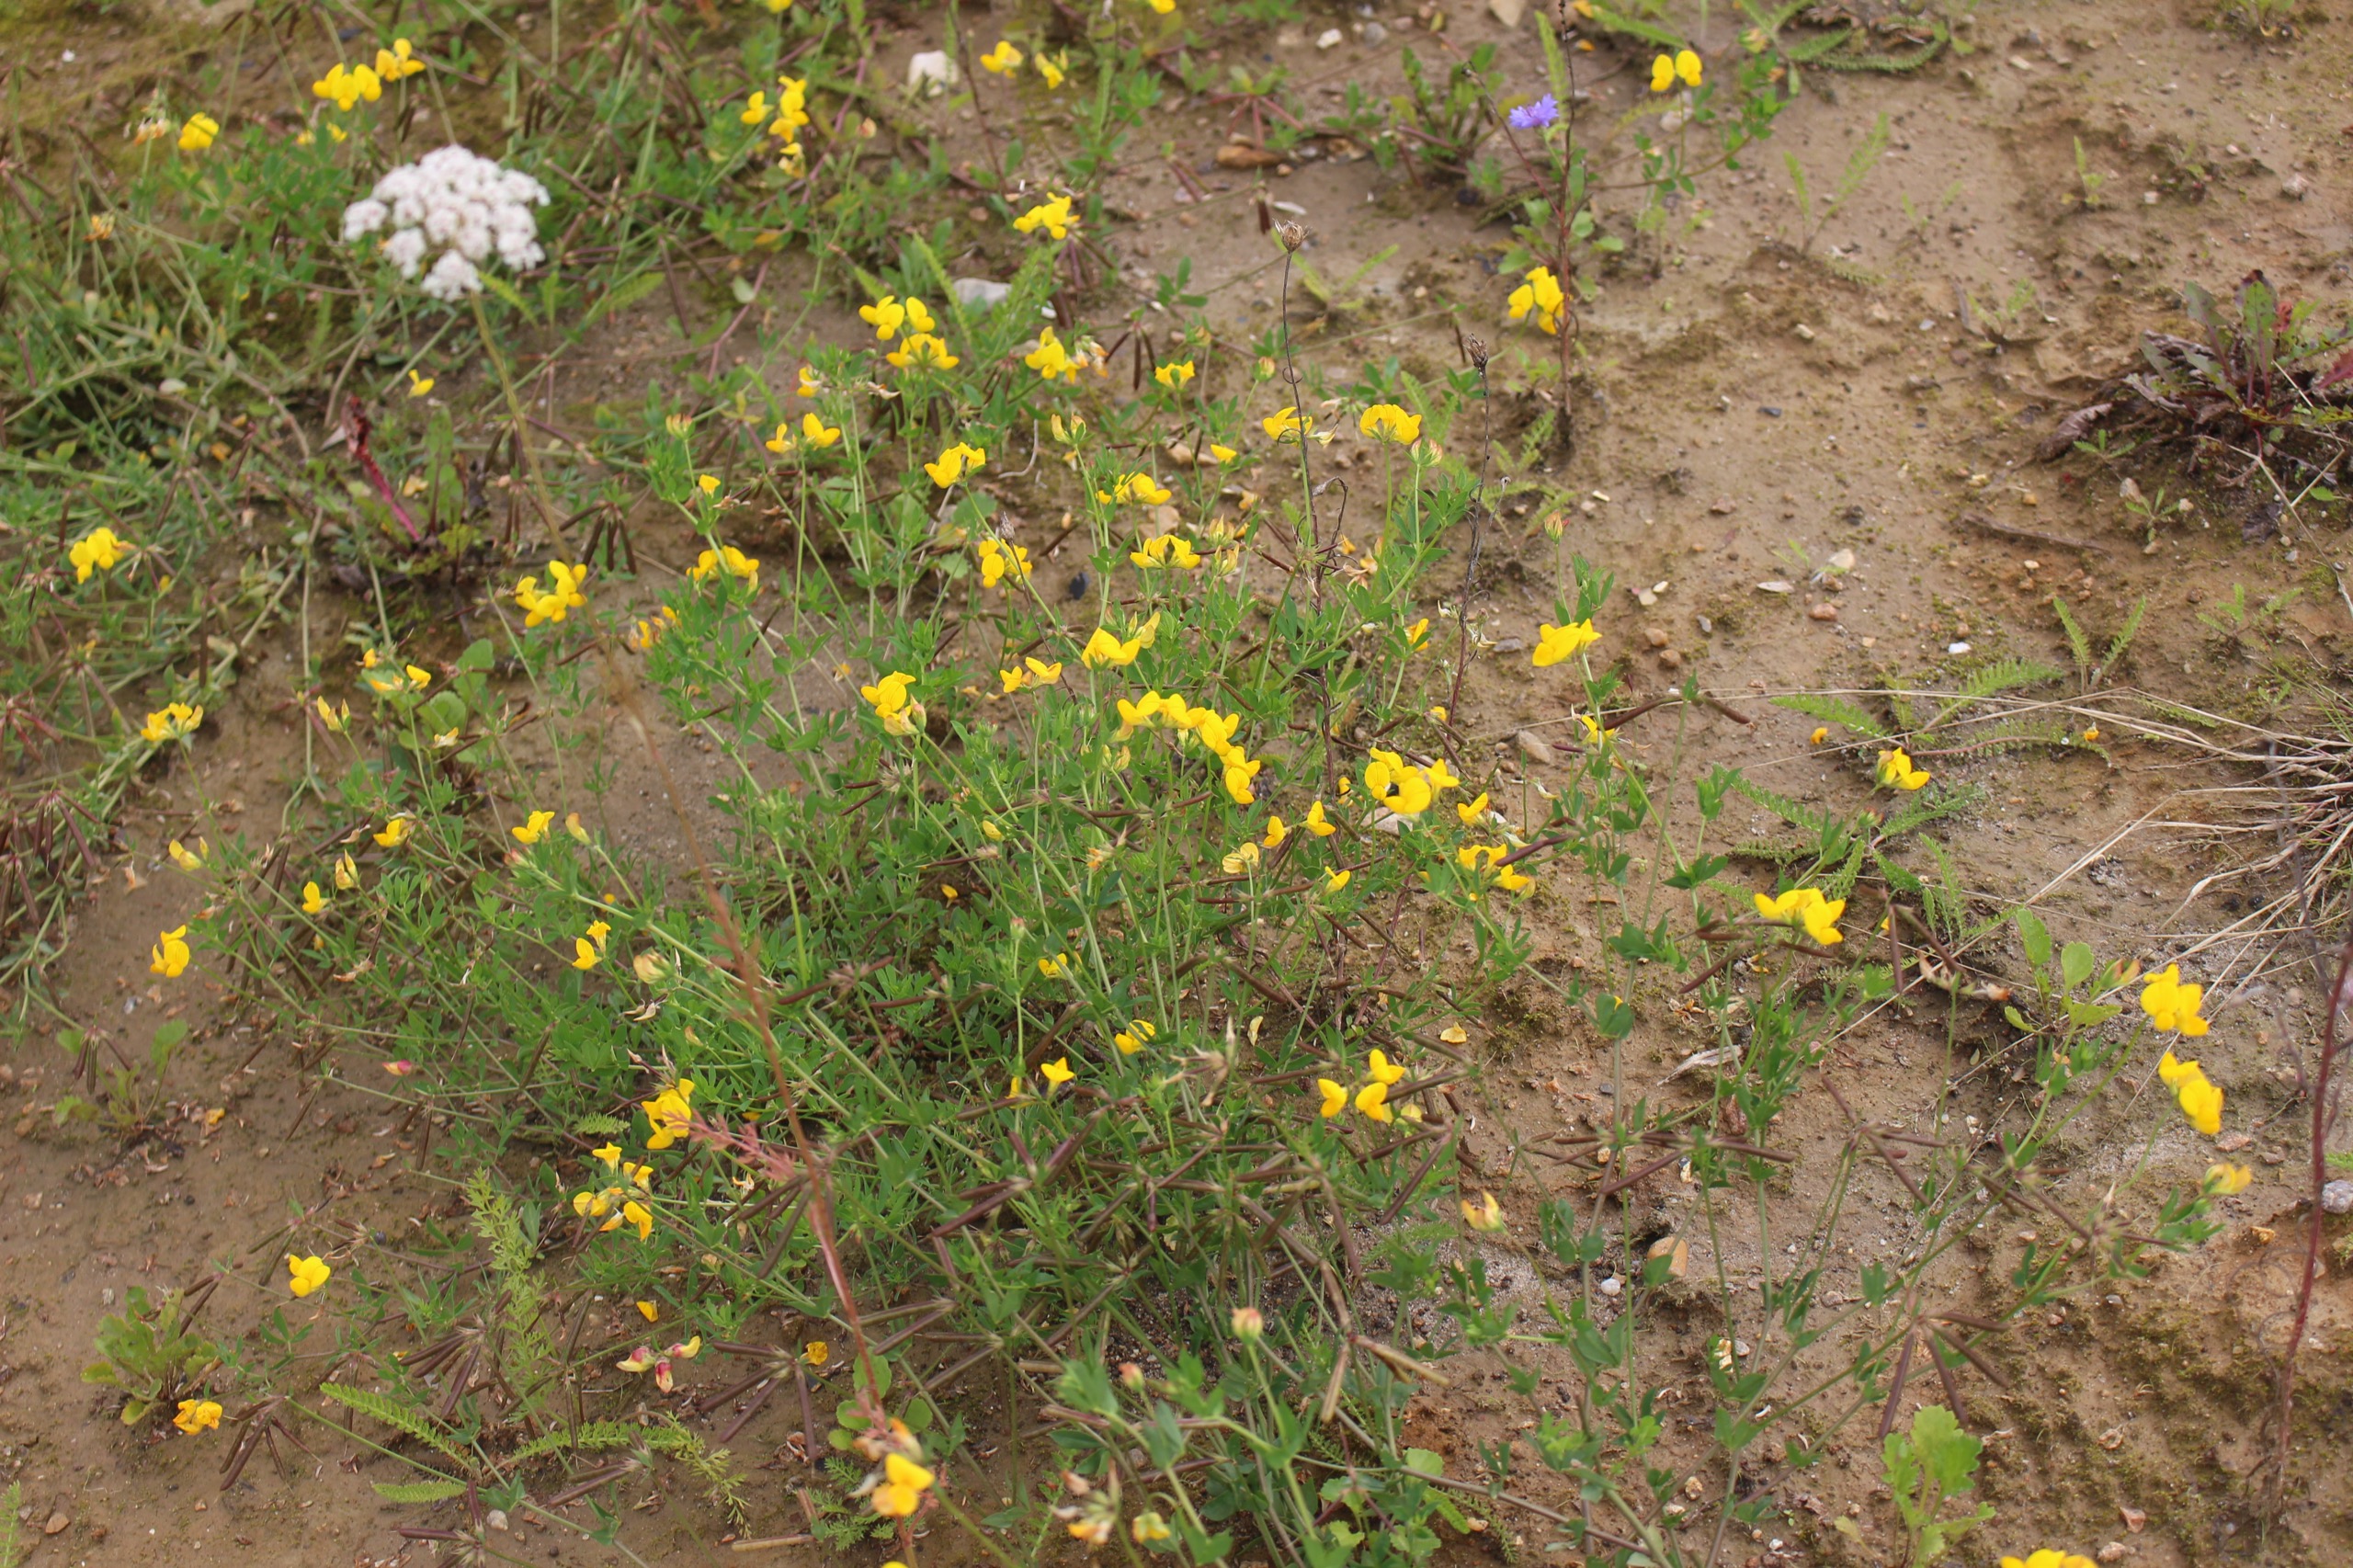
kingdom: Plantae
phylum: Tracheophyta
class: Magnoliopsida
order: Fabales
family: Fabaceae
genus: Lotus
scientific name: Lotus corniculatus
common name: Almindelig kællingetand
